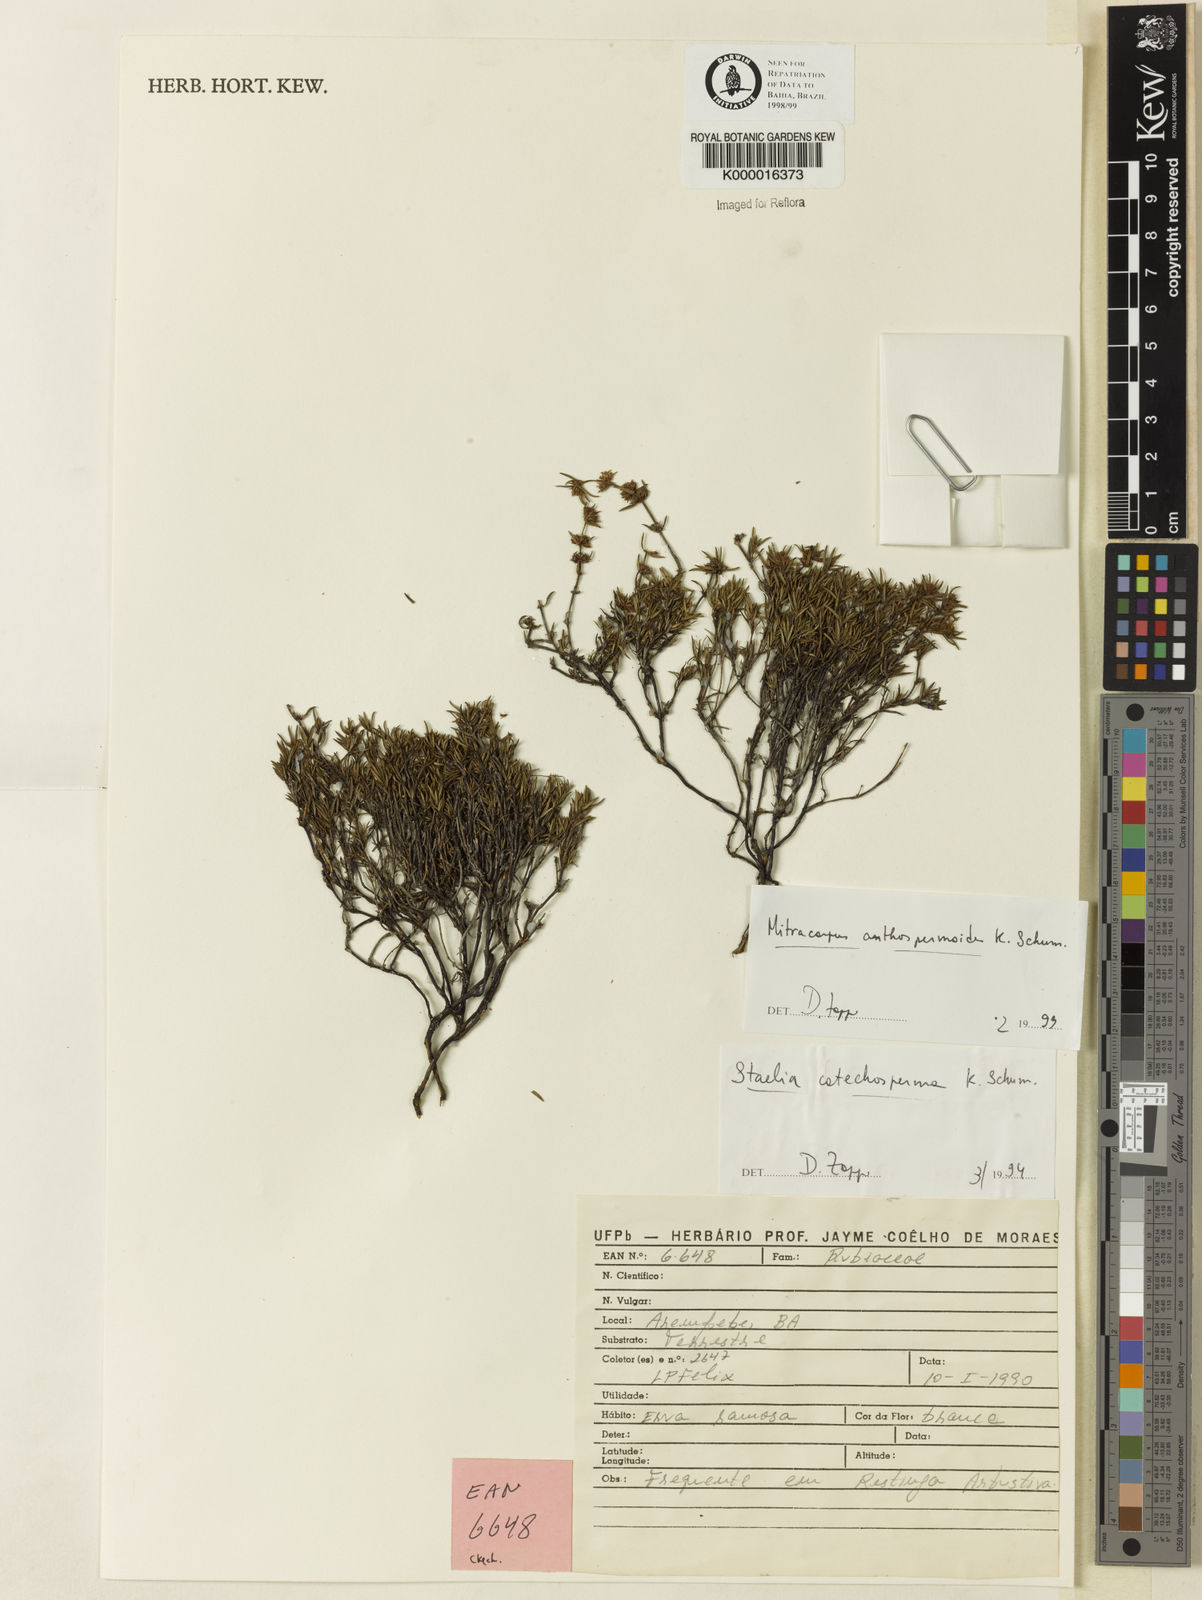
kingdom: Plantae
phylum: Tracheophyta
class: Magnoliopsida
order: Gentianales
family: Rubiaceae
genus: Mitracarpus
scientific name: Mitracarpus anthospermoides
